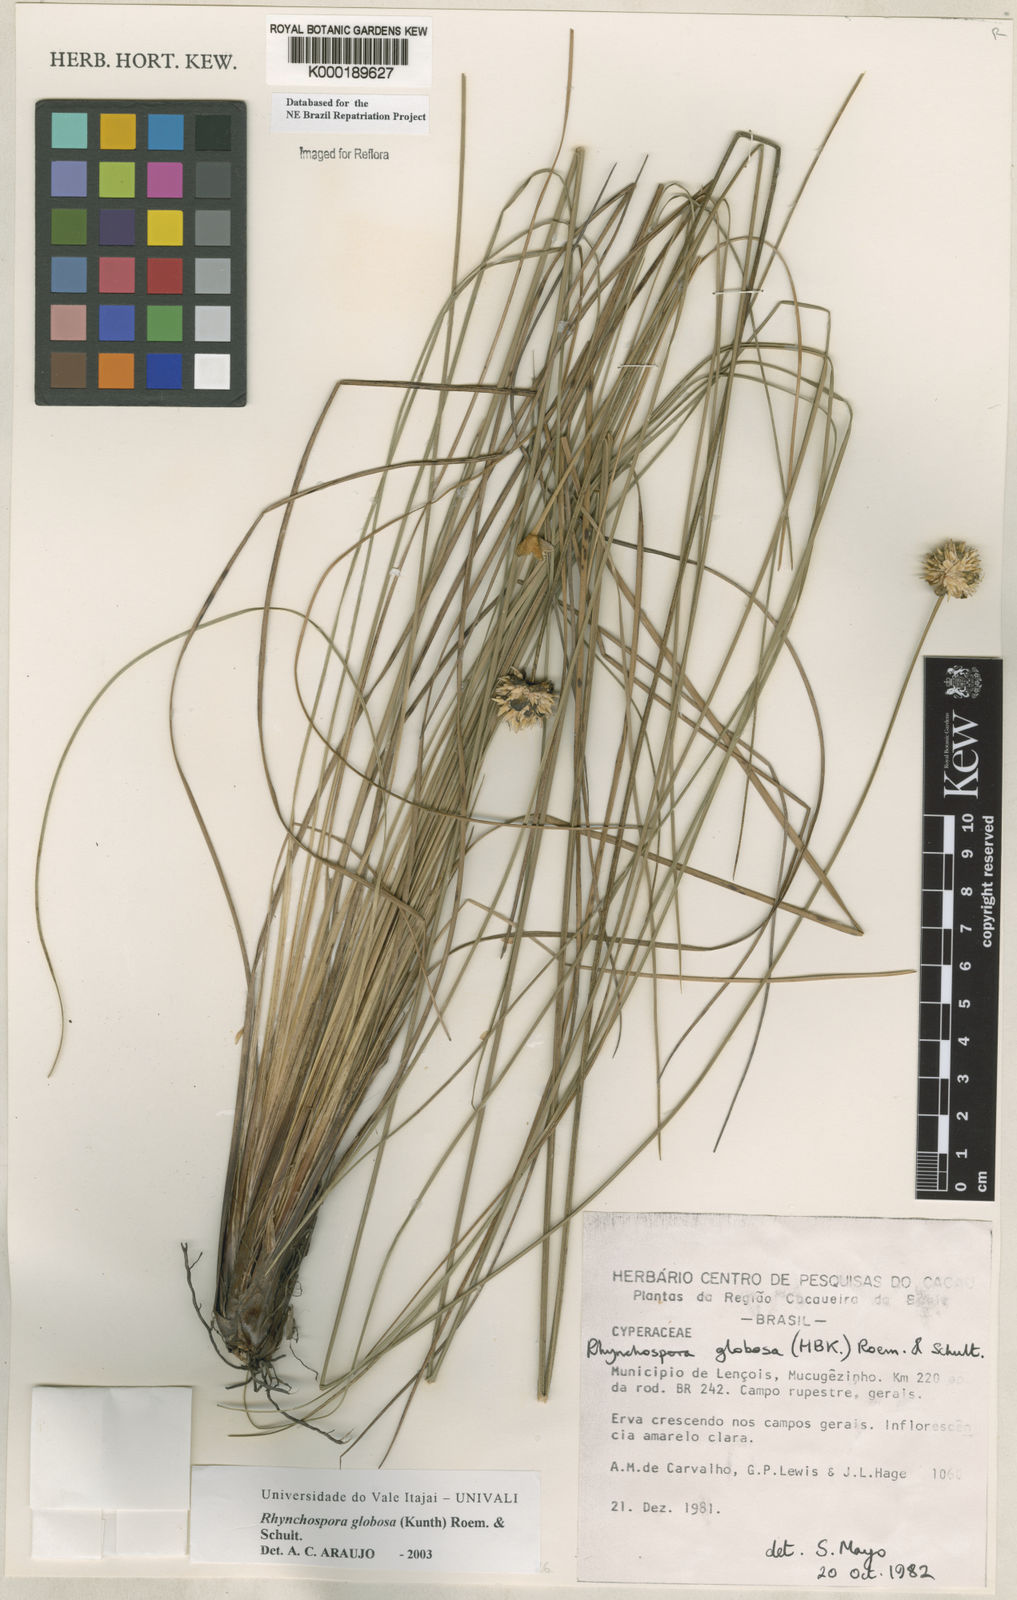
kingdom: Plantae
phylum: Tracheophyta
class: Liliopsida
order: Poales
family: Cyperaceae
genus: Rhynchospora
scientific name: Rhynchospora globosa
